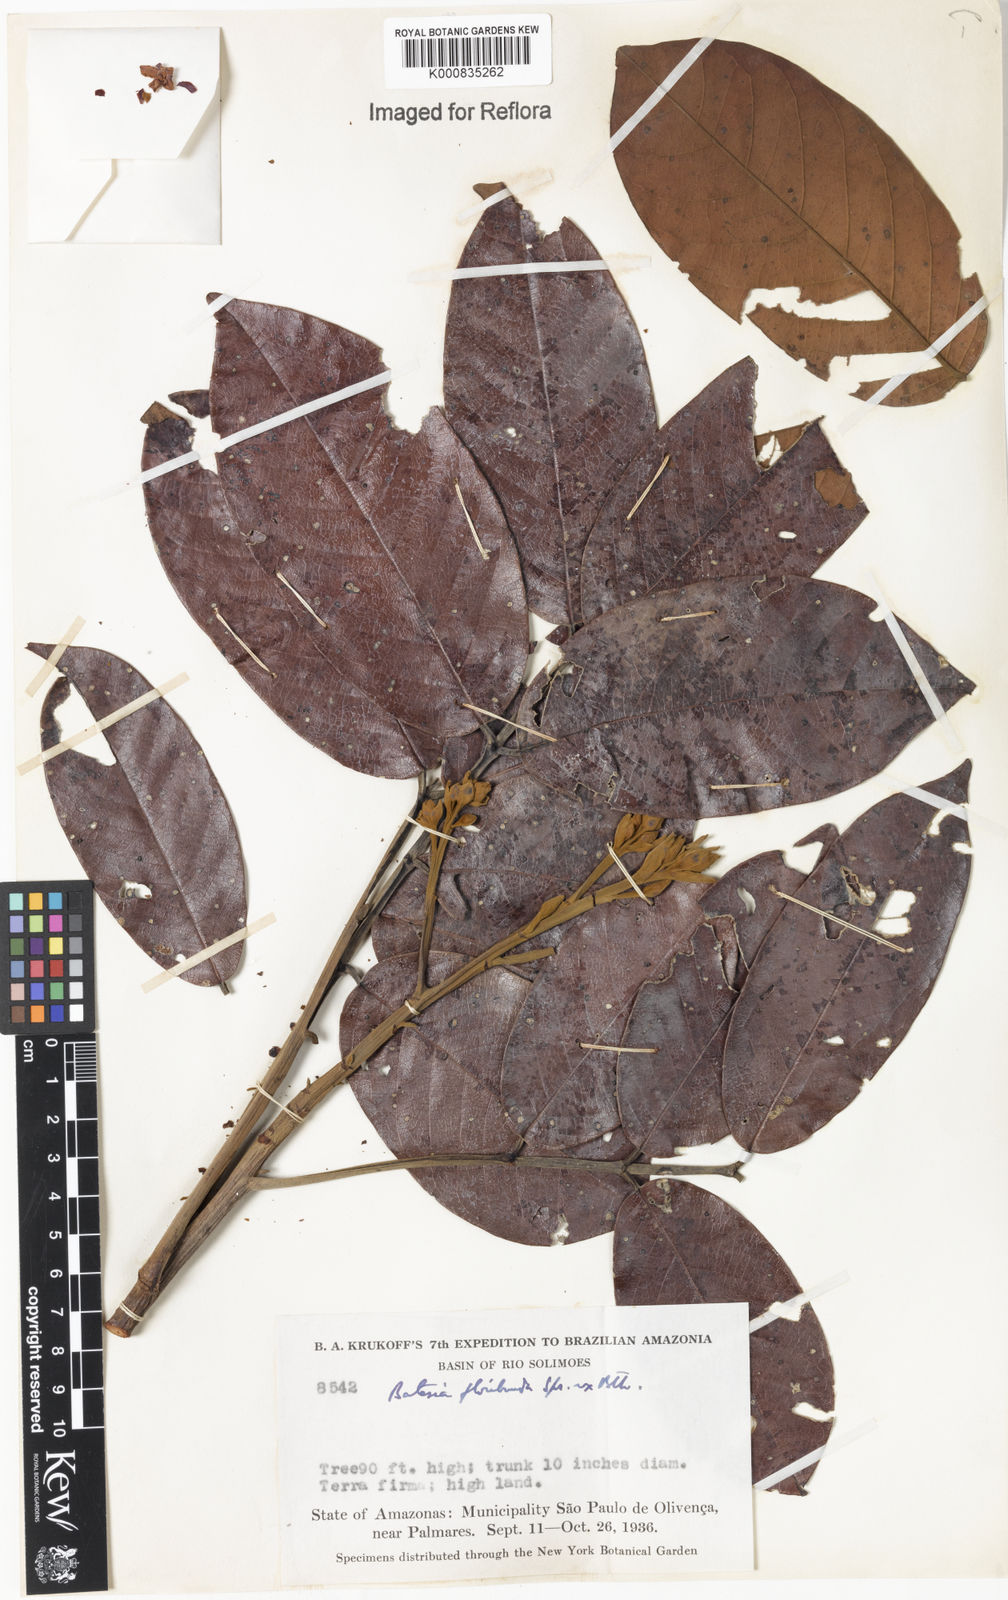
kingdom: Plantae
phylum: Tracheophyta
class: Magnoliopsida
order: Fabales
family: Fabaceae
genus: Batesia
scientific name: Batesia floribunda
